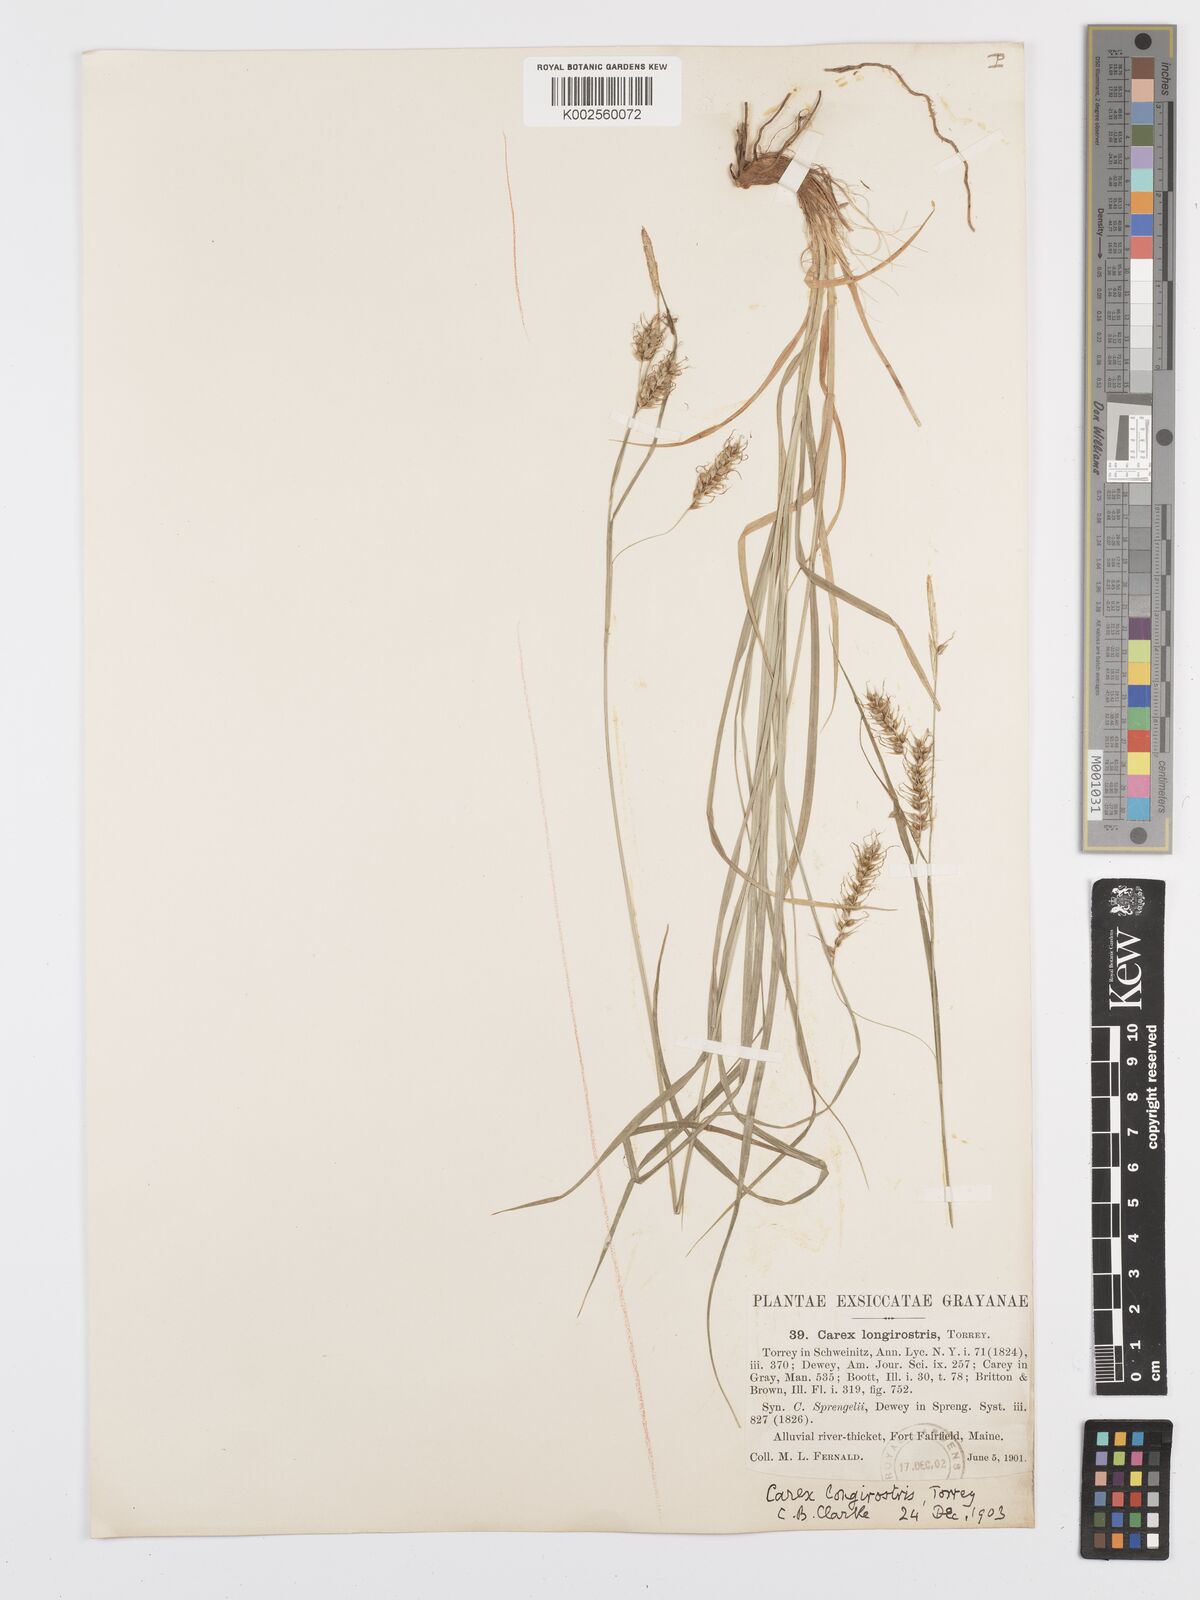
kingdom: Plantae
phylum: Tracheophyta
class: Liliopsida
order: Poales
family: Cyperaceae
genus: Carex
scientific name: Carex sprengelii
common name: Long-beaked sedge
